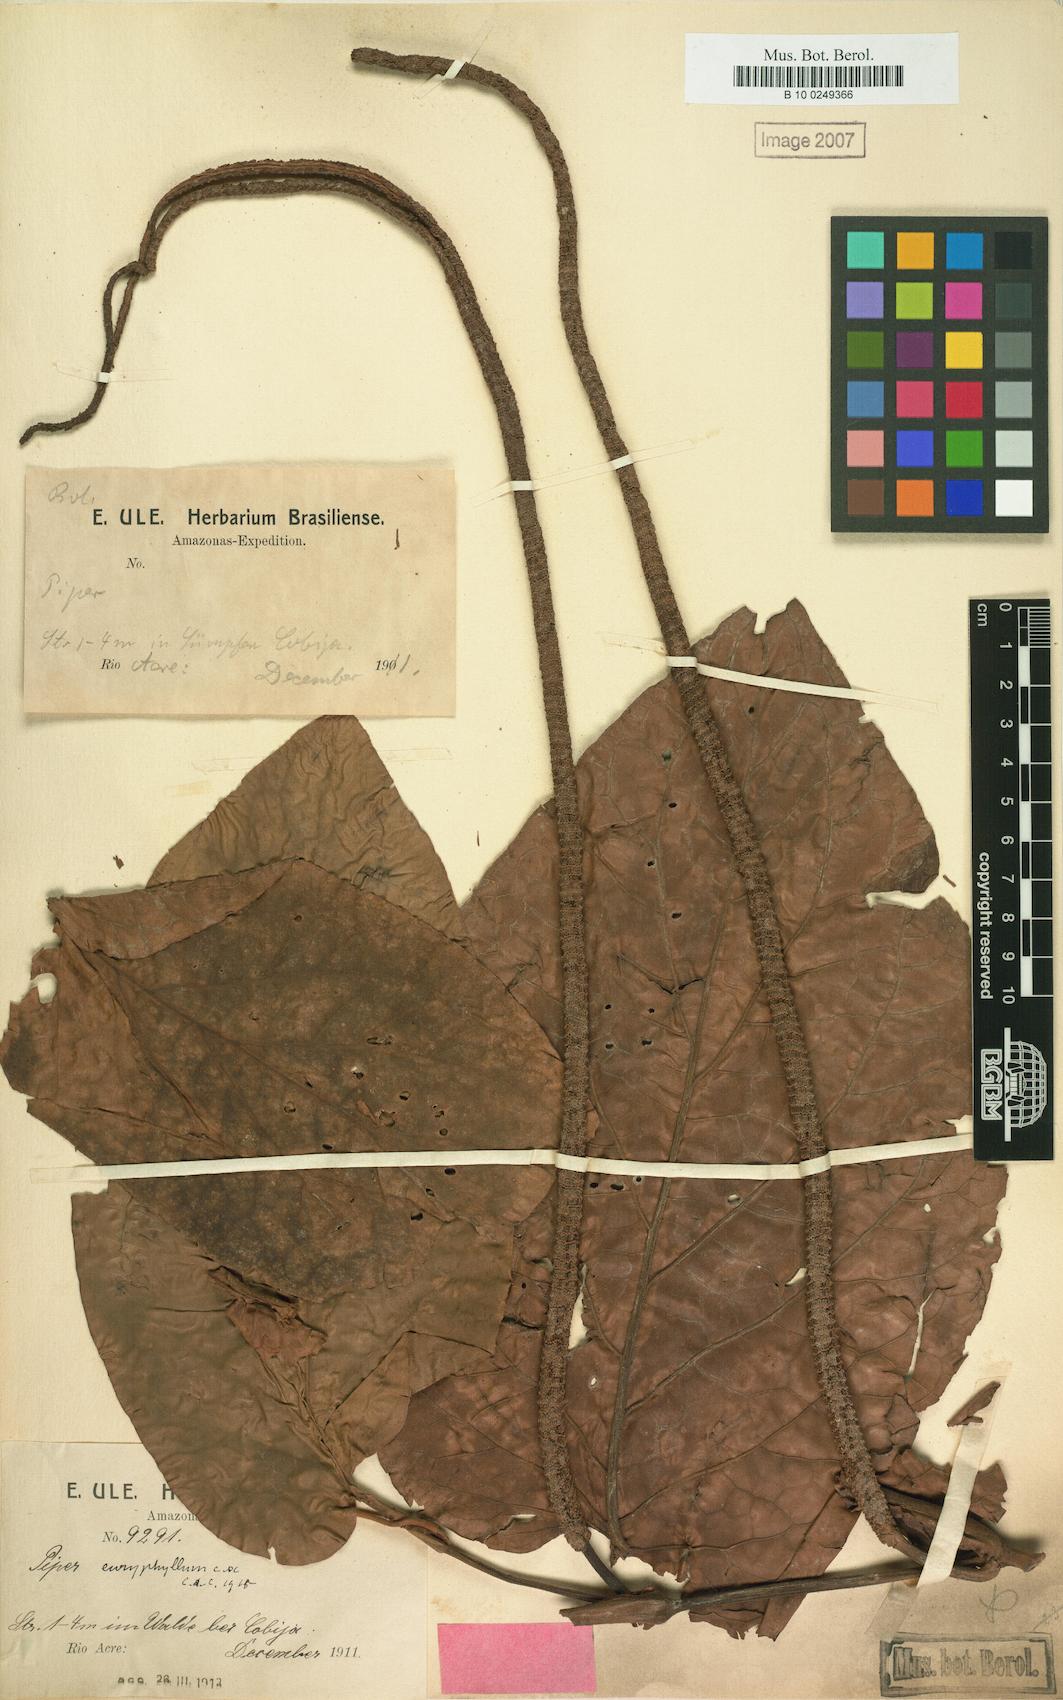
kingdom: Plantae
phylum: Tracheophyta
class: Magnoliopsida
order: Piperales
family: Piperaceae
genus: Piper
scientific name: Piper euryphyllum
